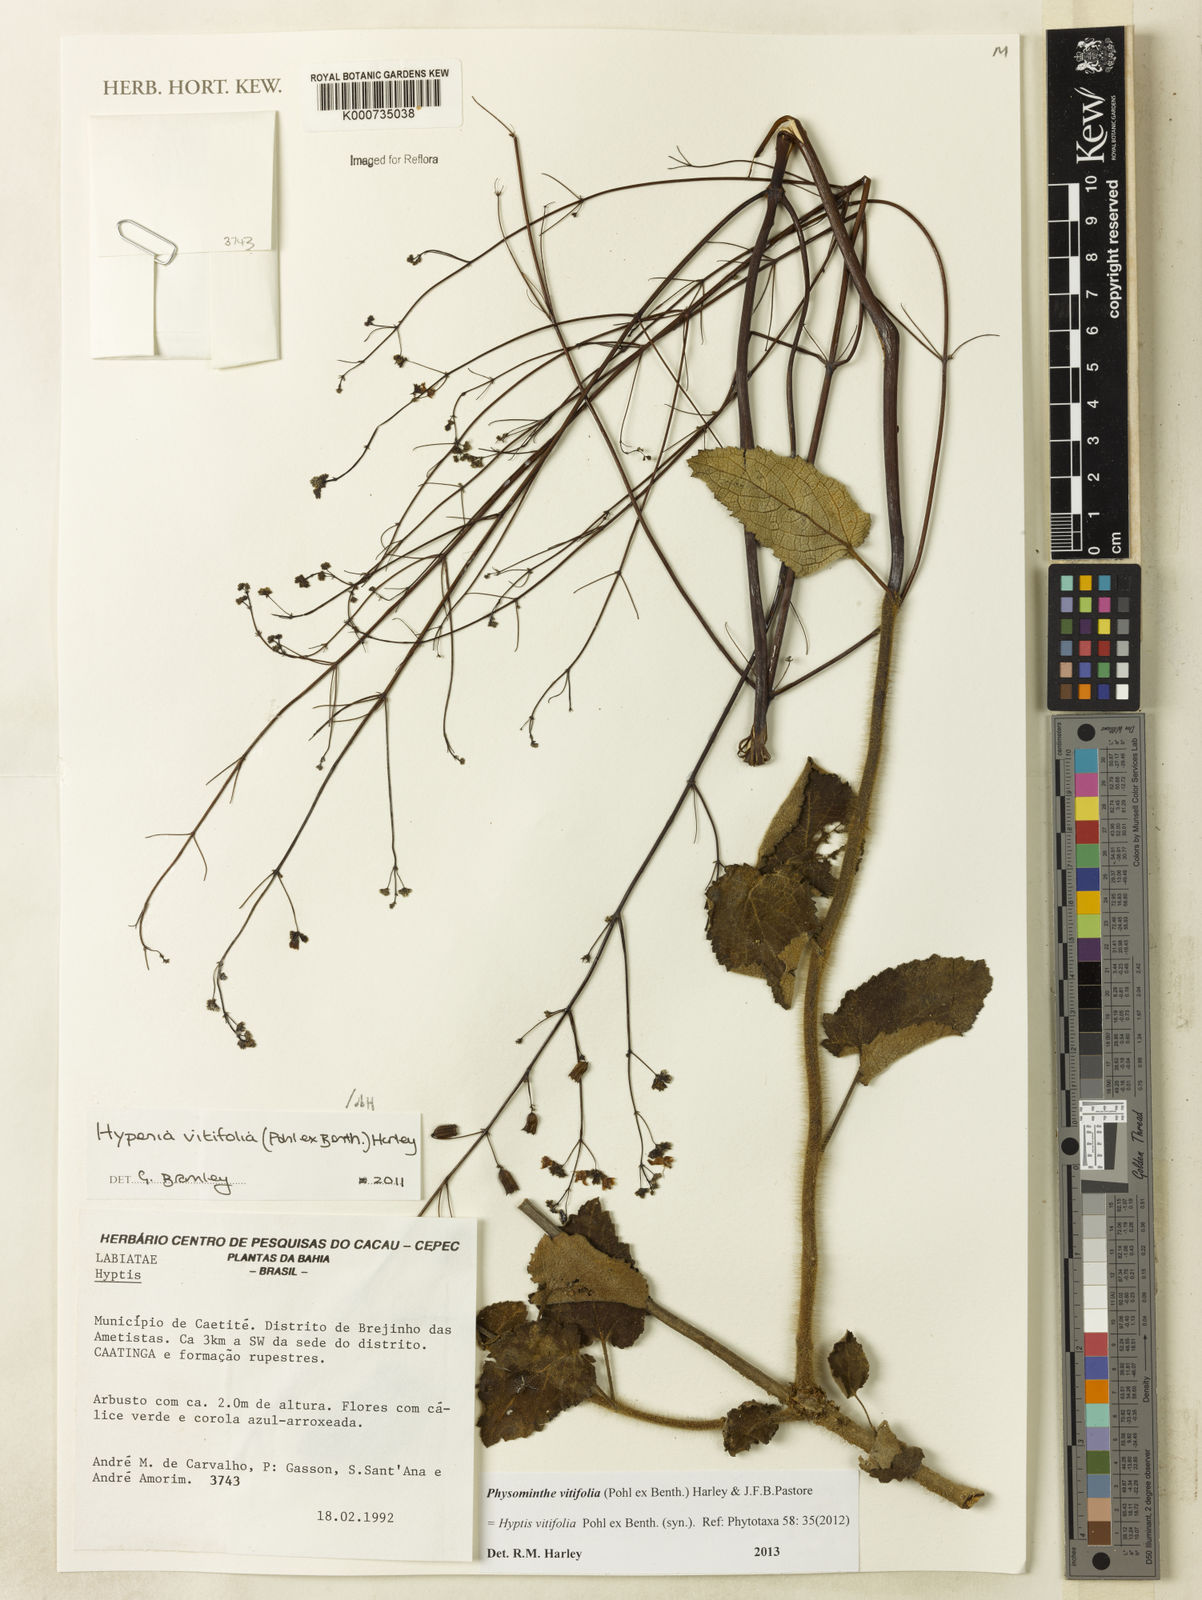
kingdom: Plantae
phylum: Tracheophyta
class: Magnoliopsida
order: Lamiales
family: Lamiaceae
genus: Physominthe
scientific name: Physominthe vitifolia
